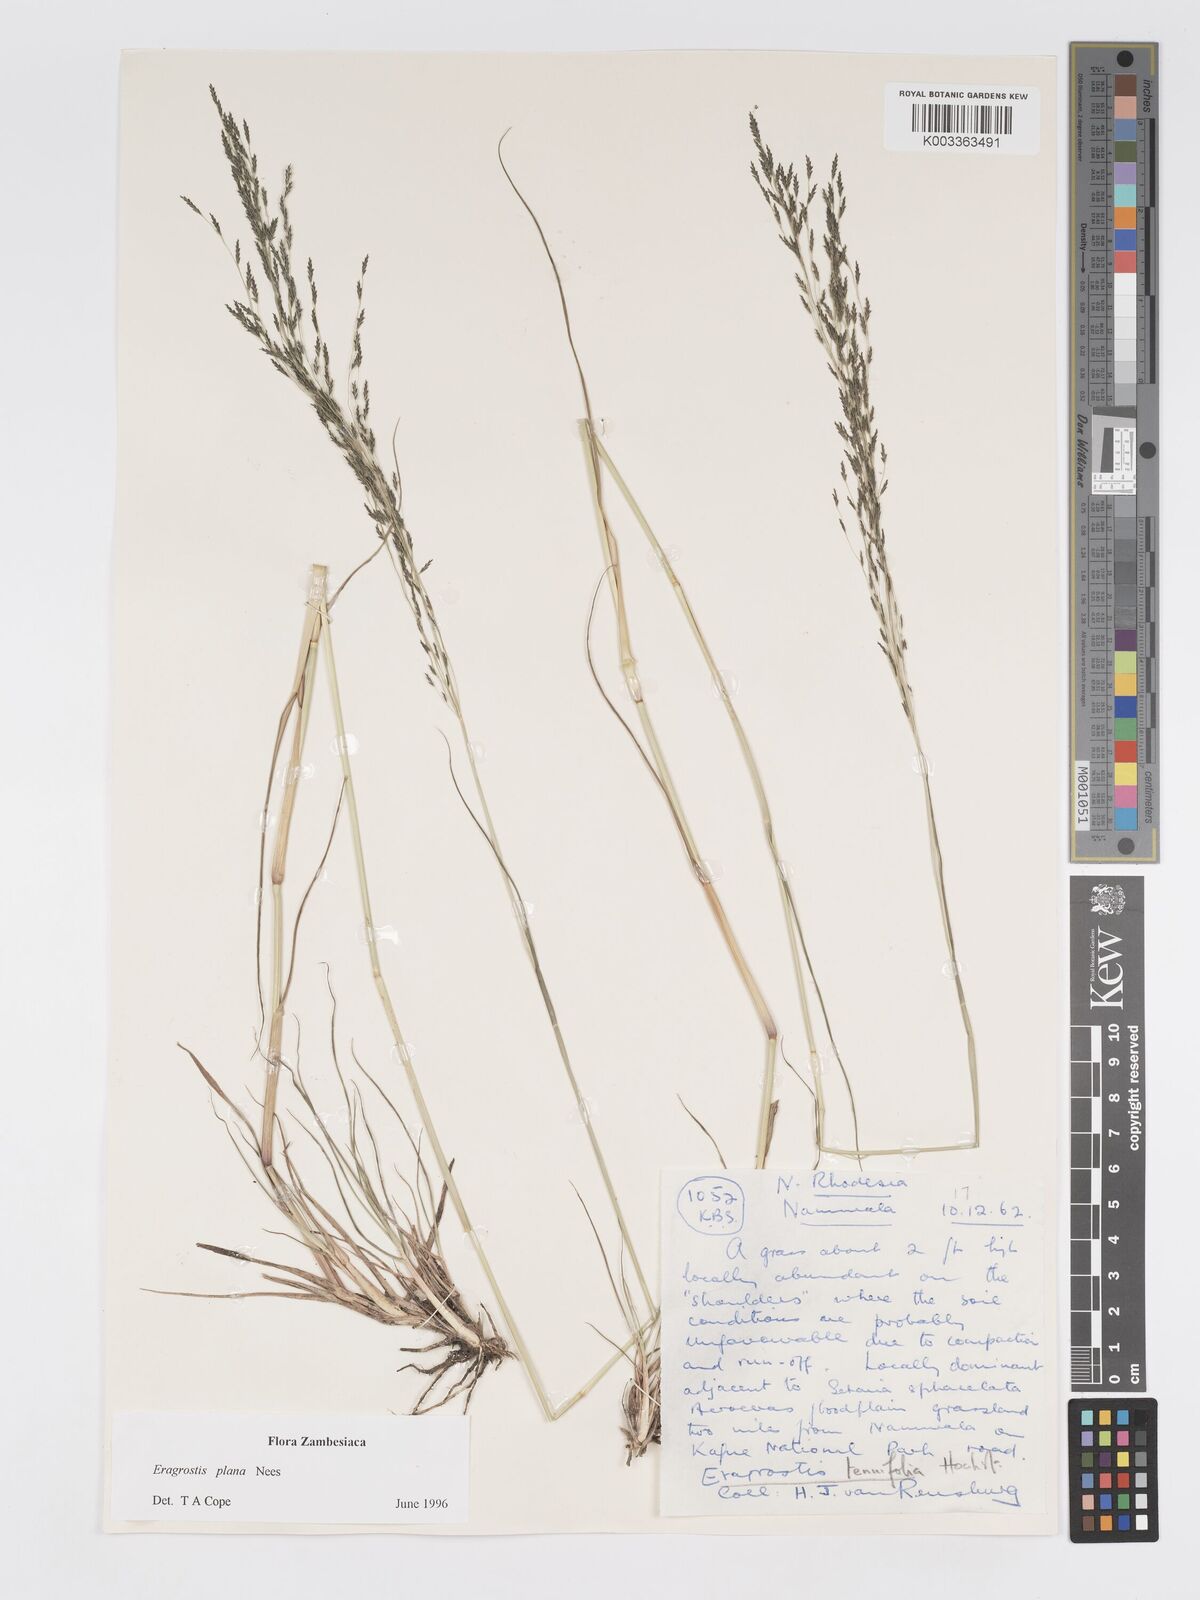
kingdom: Plantae
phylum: Tracheophyta
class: Liliopsida
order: Poales
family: Poaceae
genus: Eragrostis
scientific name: Eragrostis plana
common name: South african lovegrass
